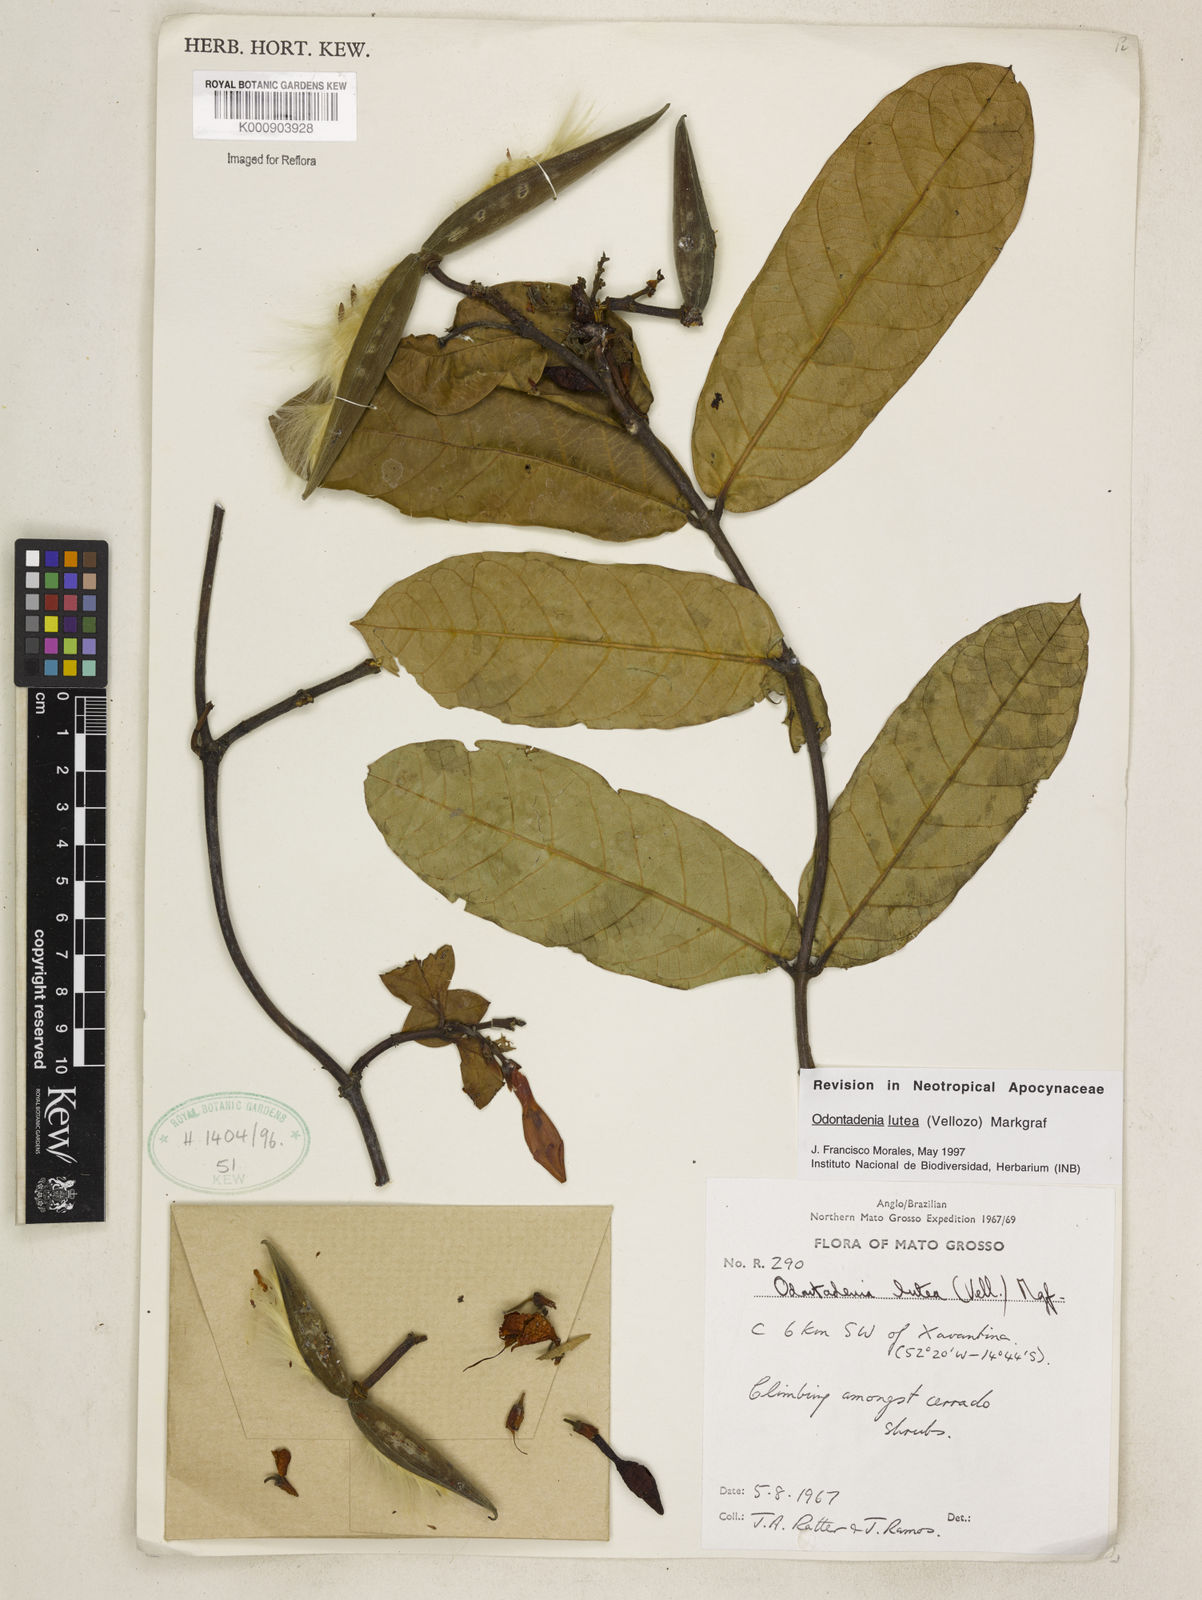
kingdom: Plantae
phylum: Tracheophyta
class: Magnoliopsida
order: Gentianales
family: Apocynaceae
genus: Odontadenia
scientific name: Odontadenia lutea
